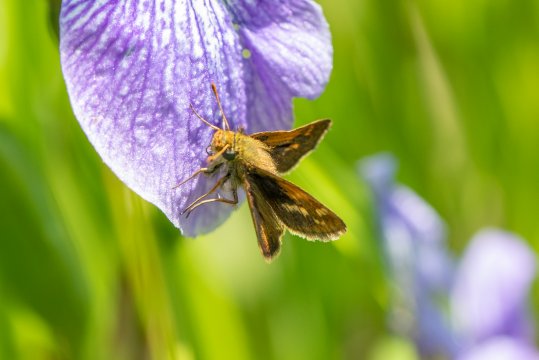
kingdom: Animalia
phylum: Arthropoda
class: Insecta
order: Lepidoptera
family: Hesperiidae
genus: Polites
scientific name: Polites themistocles
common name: Tawny-edged Skipper
